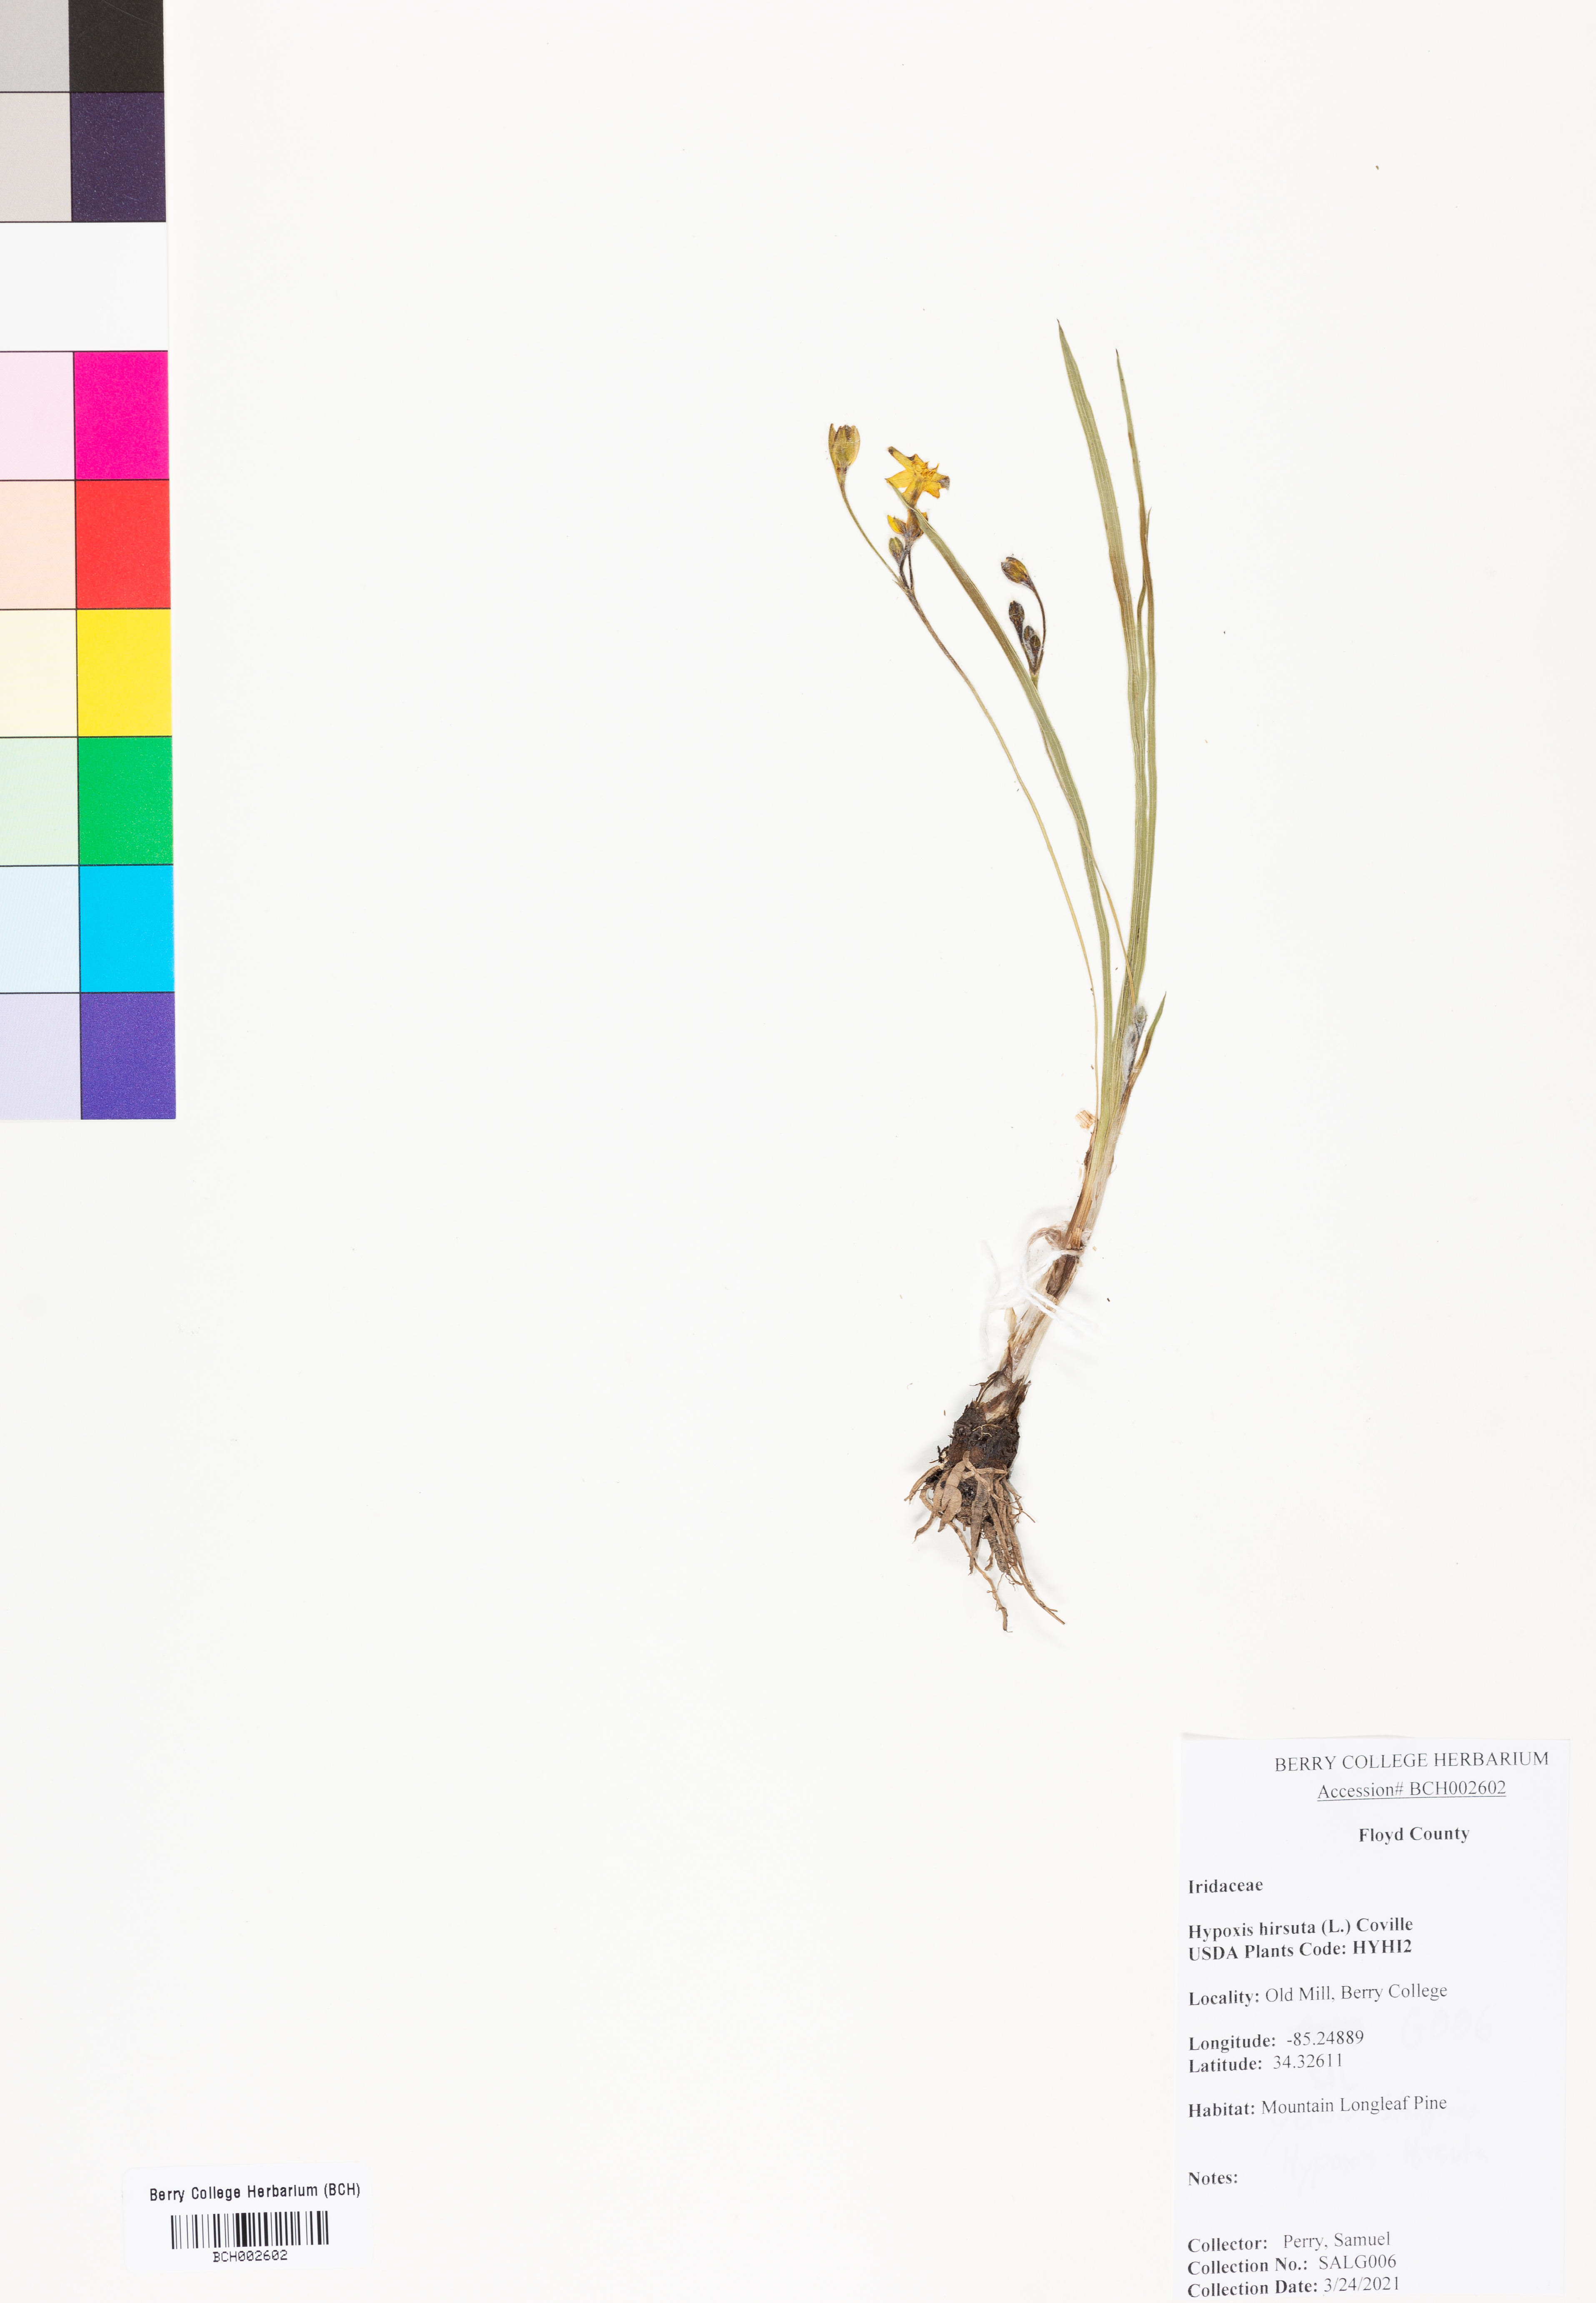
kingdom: Plantae
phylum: Tracheophyta
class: Liliopsida
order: Asparagales
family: Hypoxidaceae
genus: Hypoxis
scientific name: Hypoxis hirsuta
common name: Common goldstar
